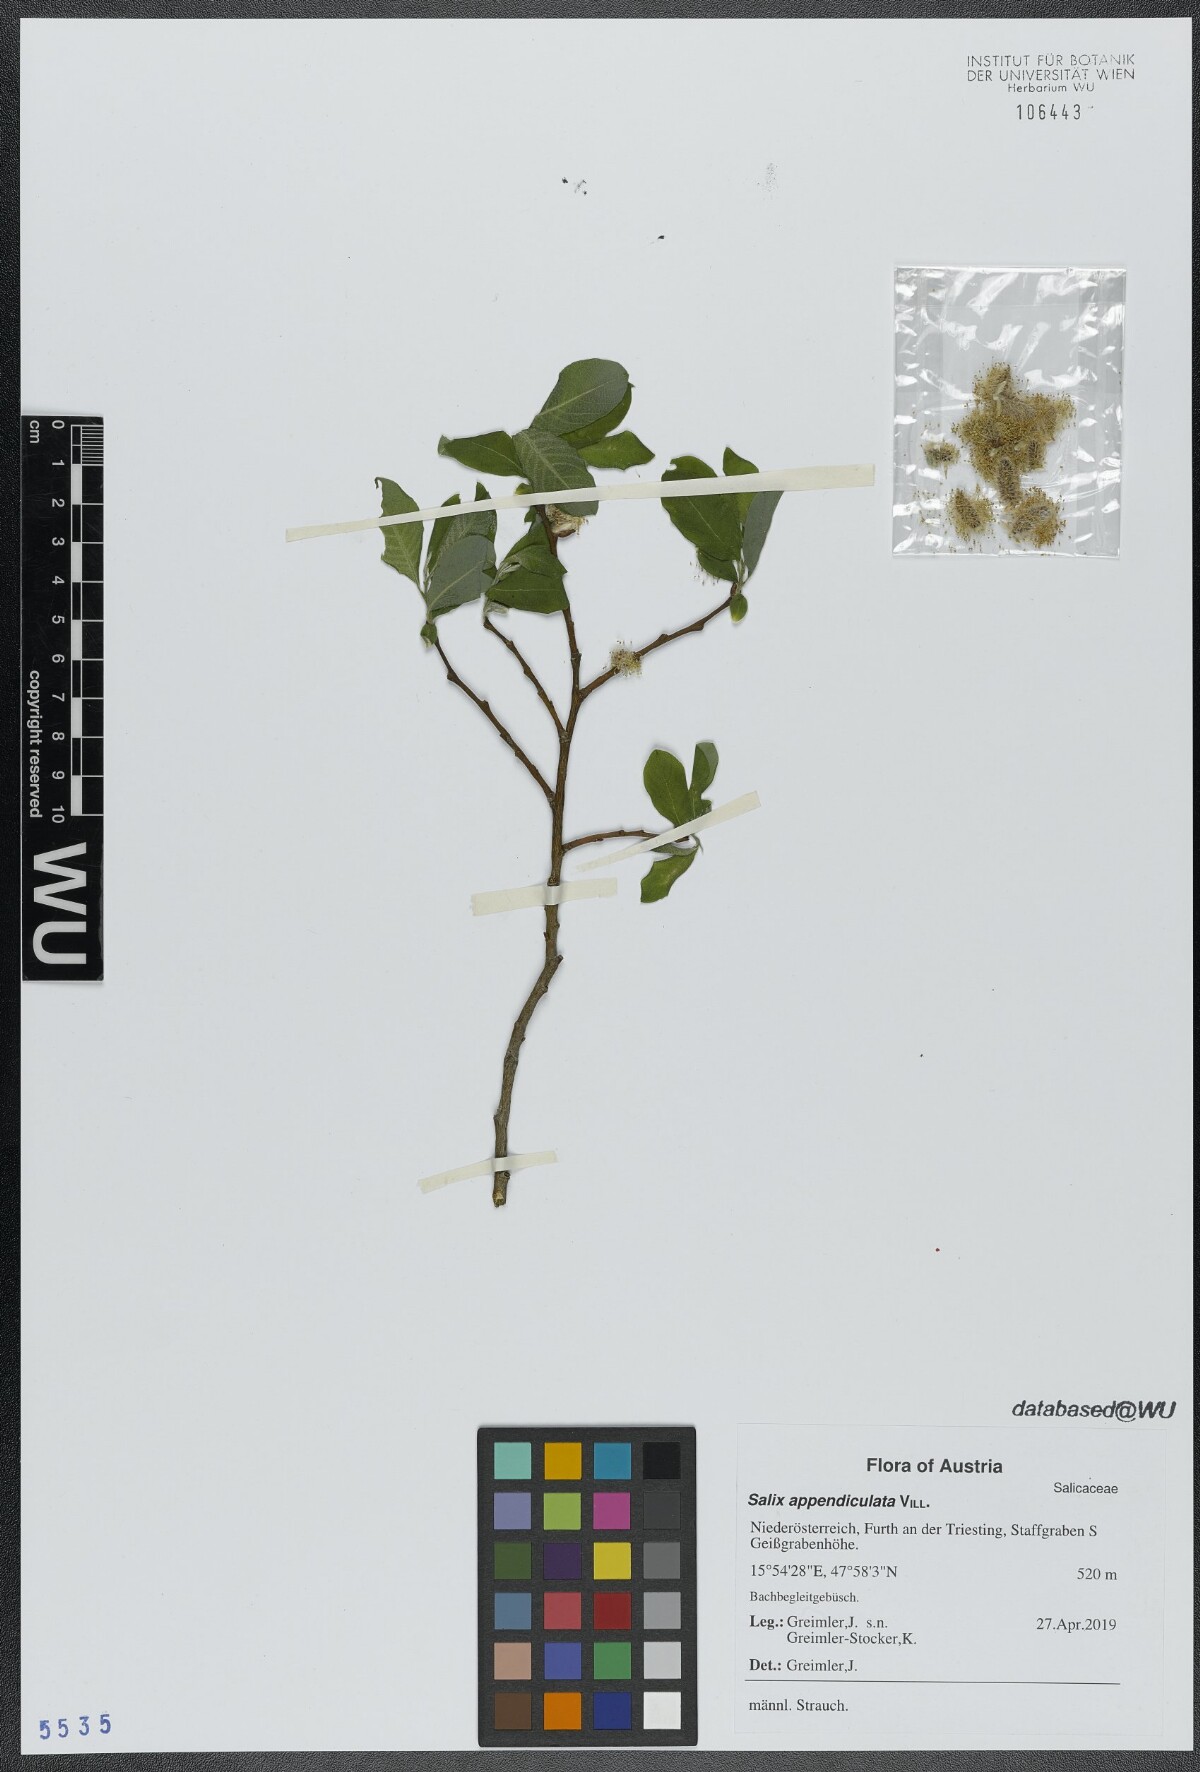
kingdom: Plantae
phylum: Tracheophyta
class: Magnoliopsida
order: Malpighiales
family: Salicaceae
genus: Salix
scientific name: Salix appendiculata
